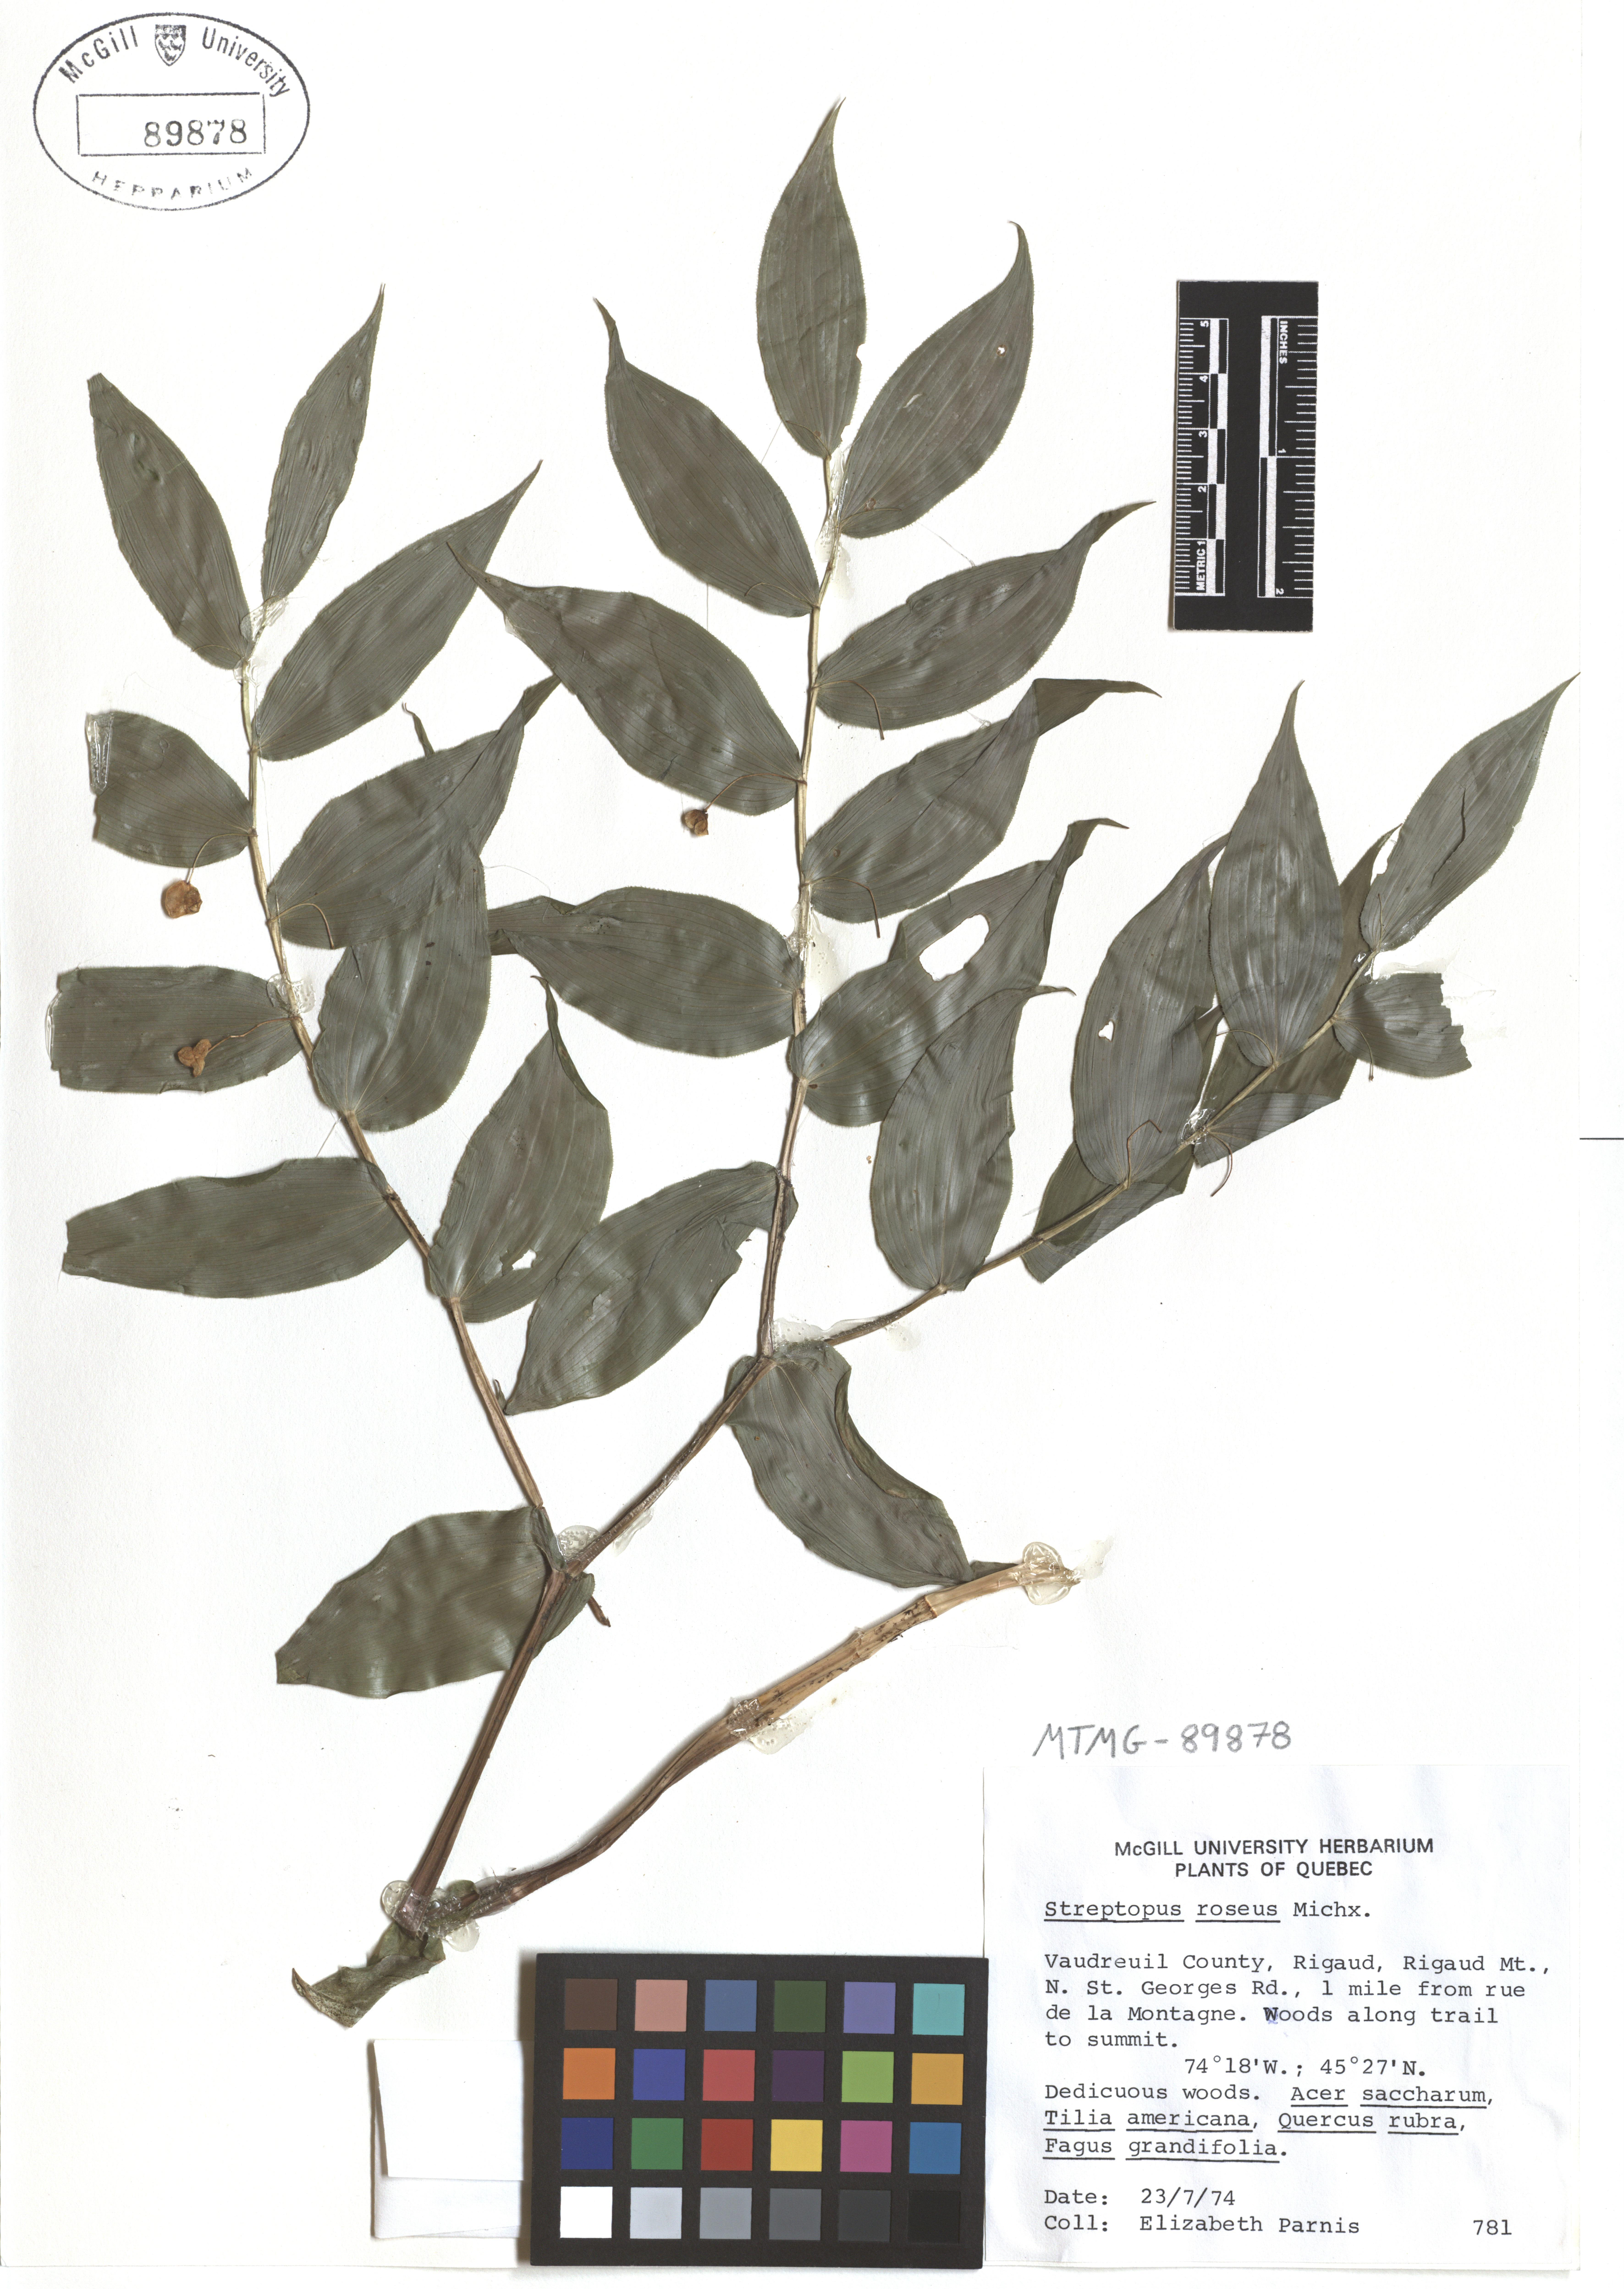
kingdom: Plantae
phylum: Tracheophyta
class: Liliopsida
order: Liliales
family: Liliaceae
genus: Streptopus
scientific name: Streptopus lanceolatus
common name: Rose mandarin
